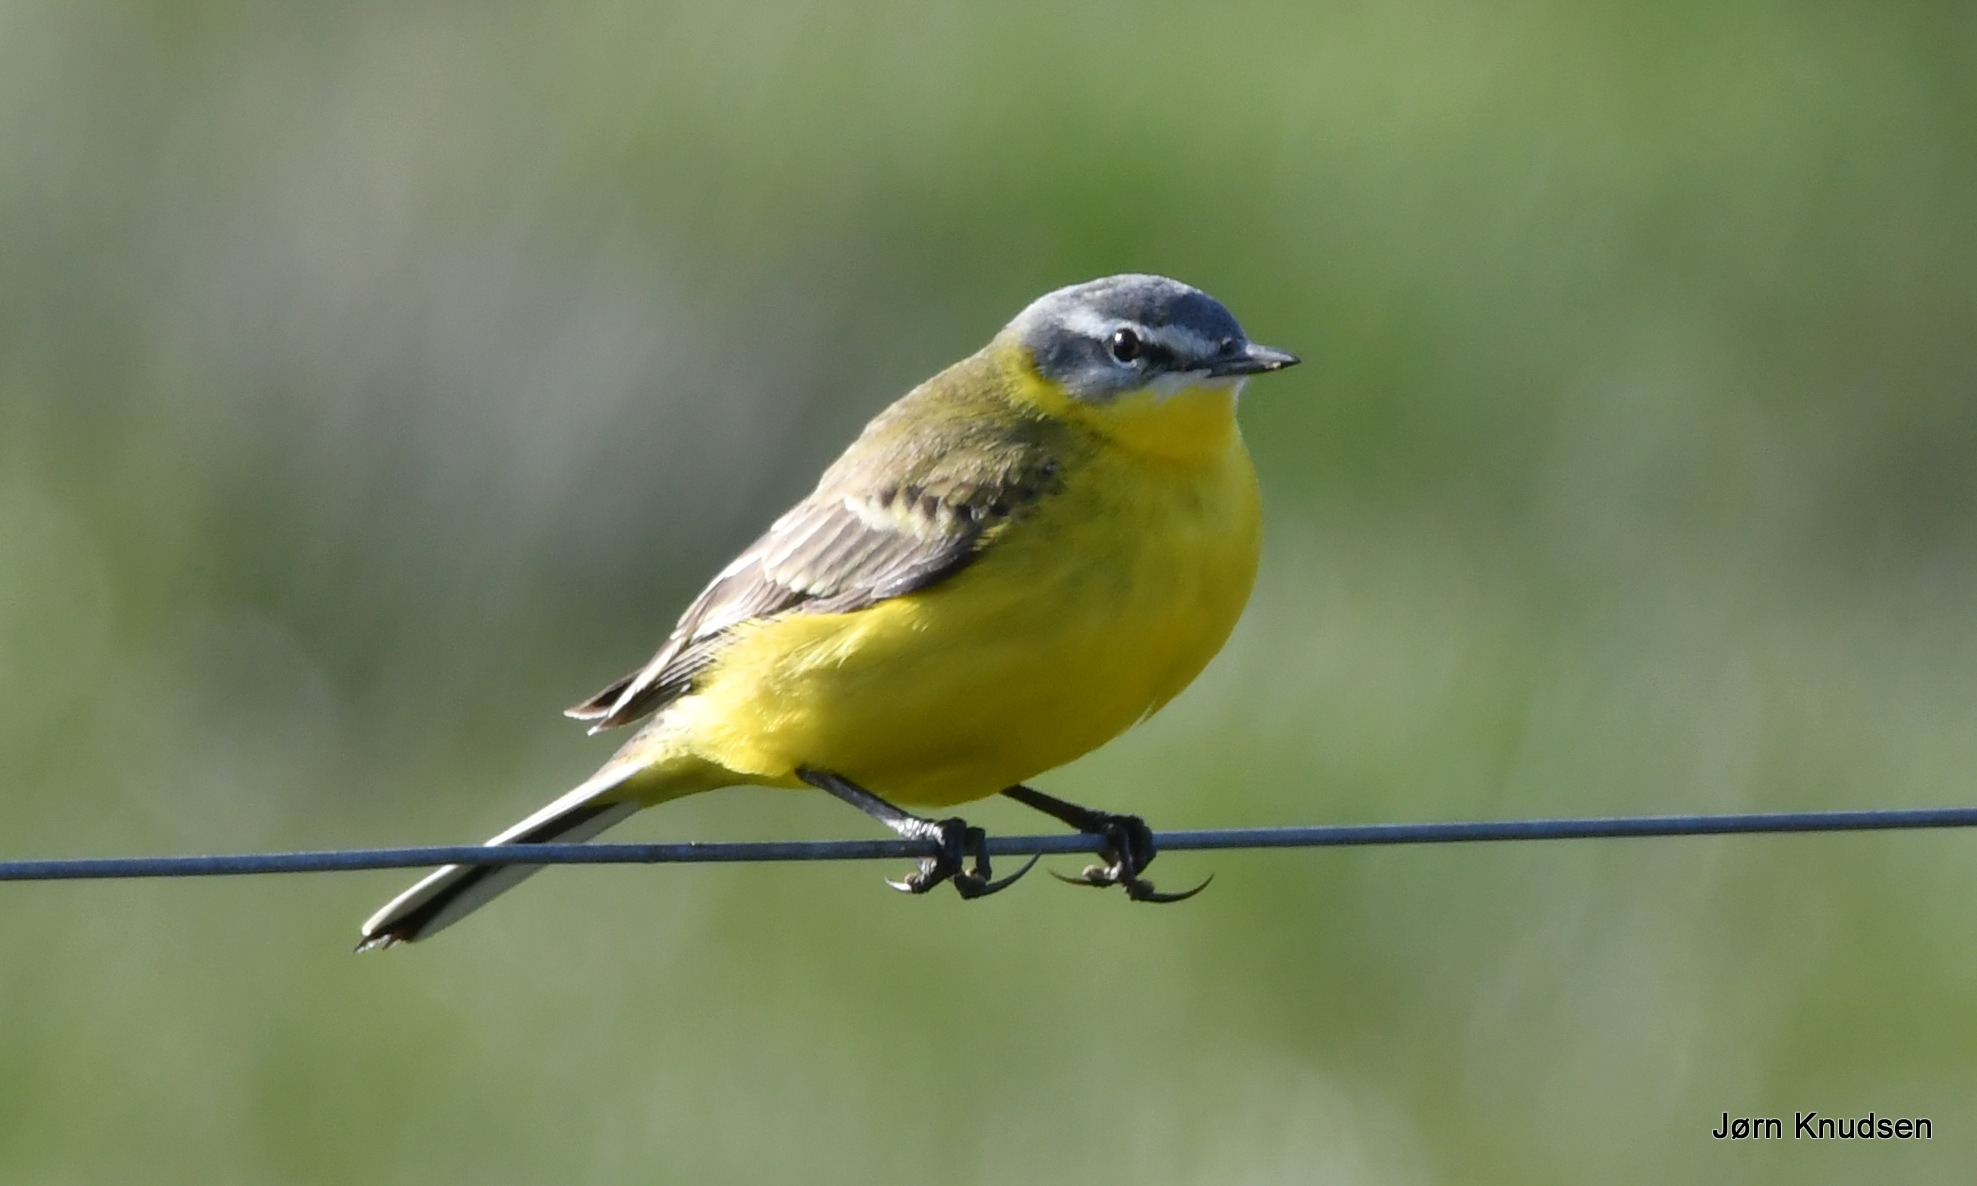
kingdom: Animalia
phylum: Chordata
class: Aves
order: Passeriformes
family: Motacillidae
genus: Motacilla
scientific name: Motacilla flava
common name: Gul vipstjert
